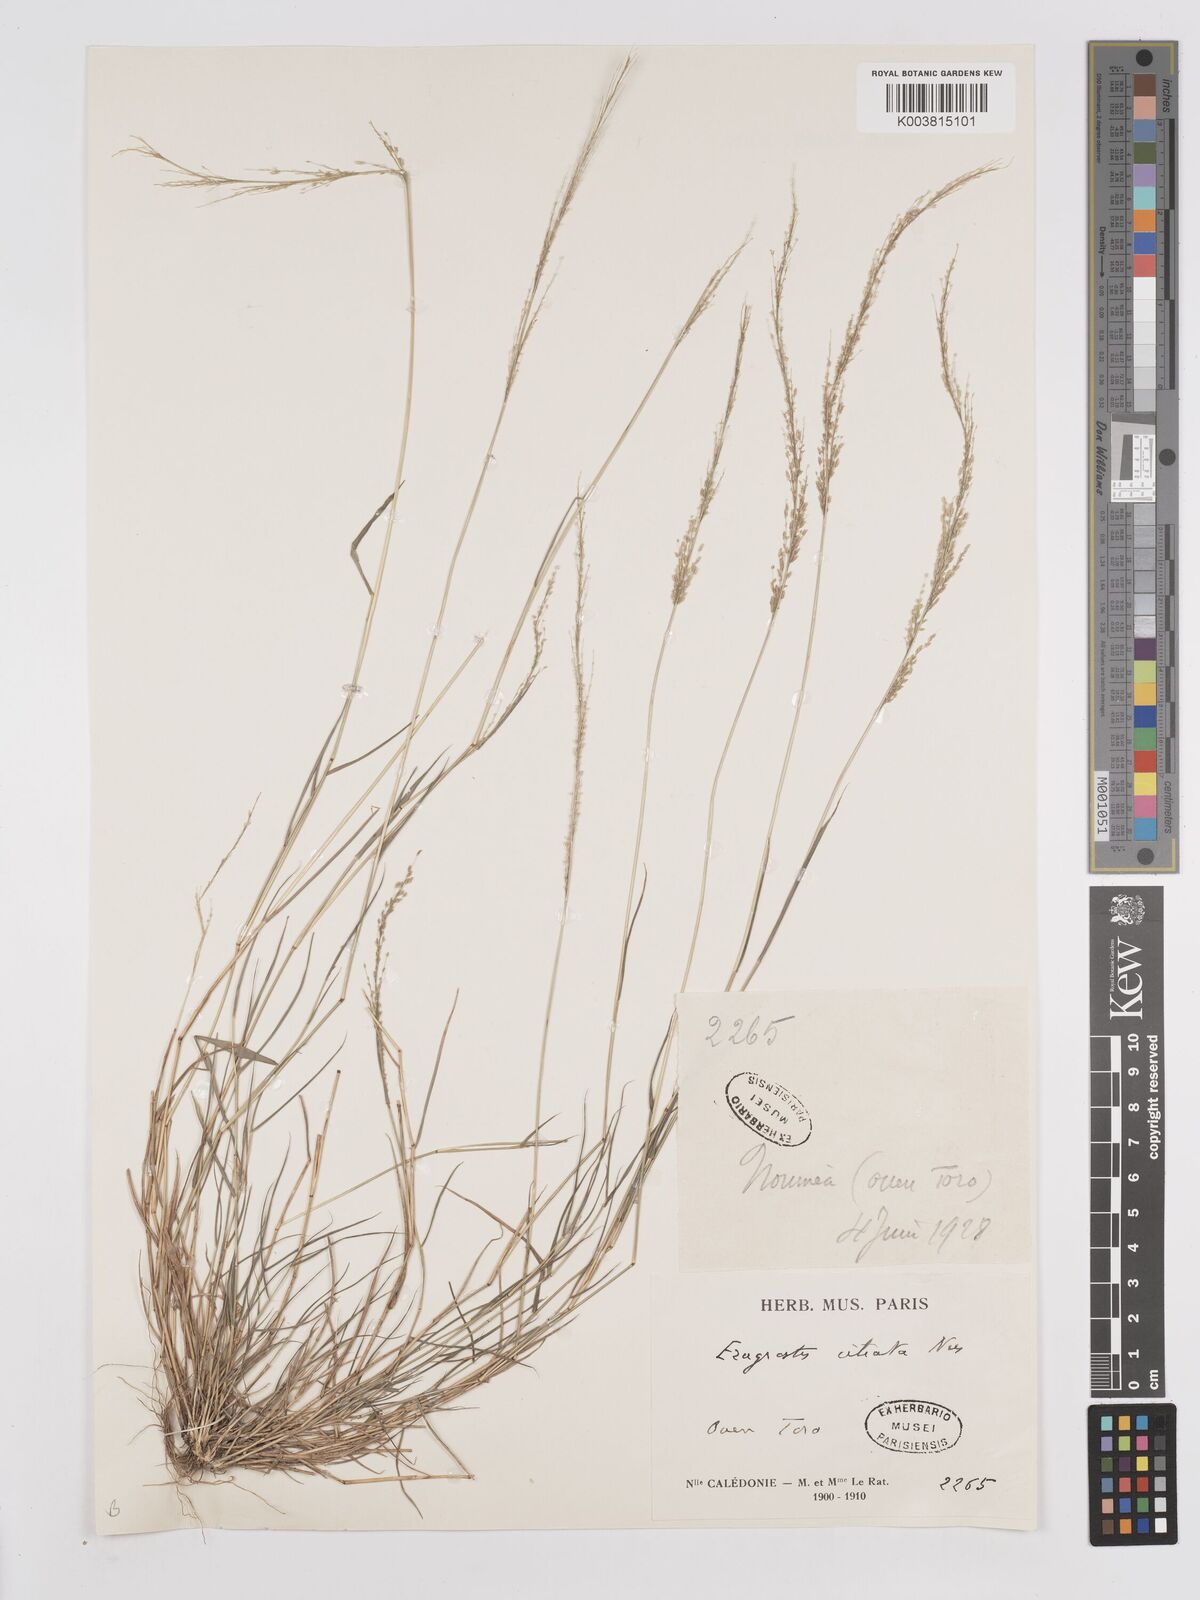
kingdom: Plantae
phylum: Tracheophyta
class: Liliopsida
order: Poales
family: Poaceae
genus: Eragrostis
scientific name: Eragrostis tenella
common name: Japanese lovegrass
